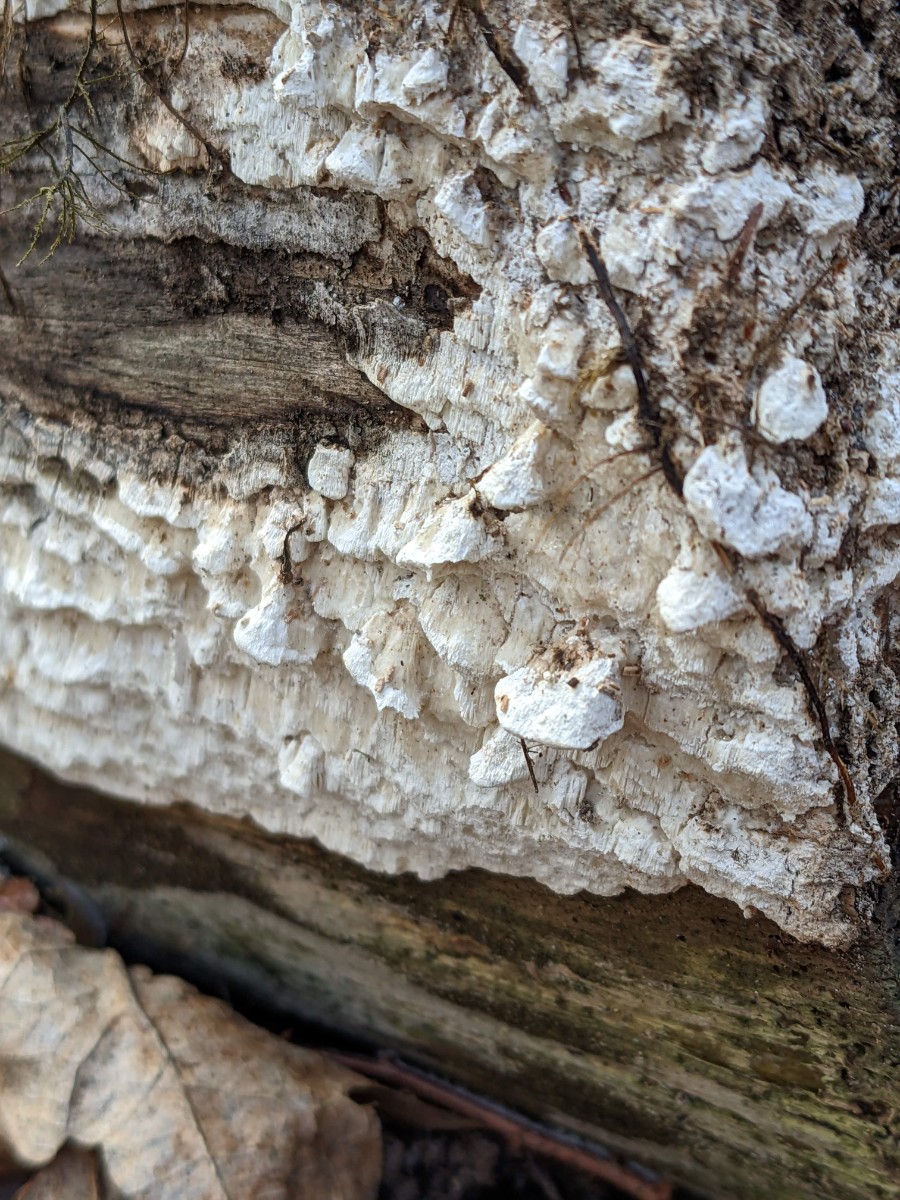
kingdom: Fungi
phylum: Basidiomycota
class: Agaricomycetes
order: Polyporales
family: Fomitopsidaceae
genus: Neoantrodia
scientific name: Neoantrodia serialis
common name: række-sejporesvamp
